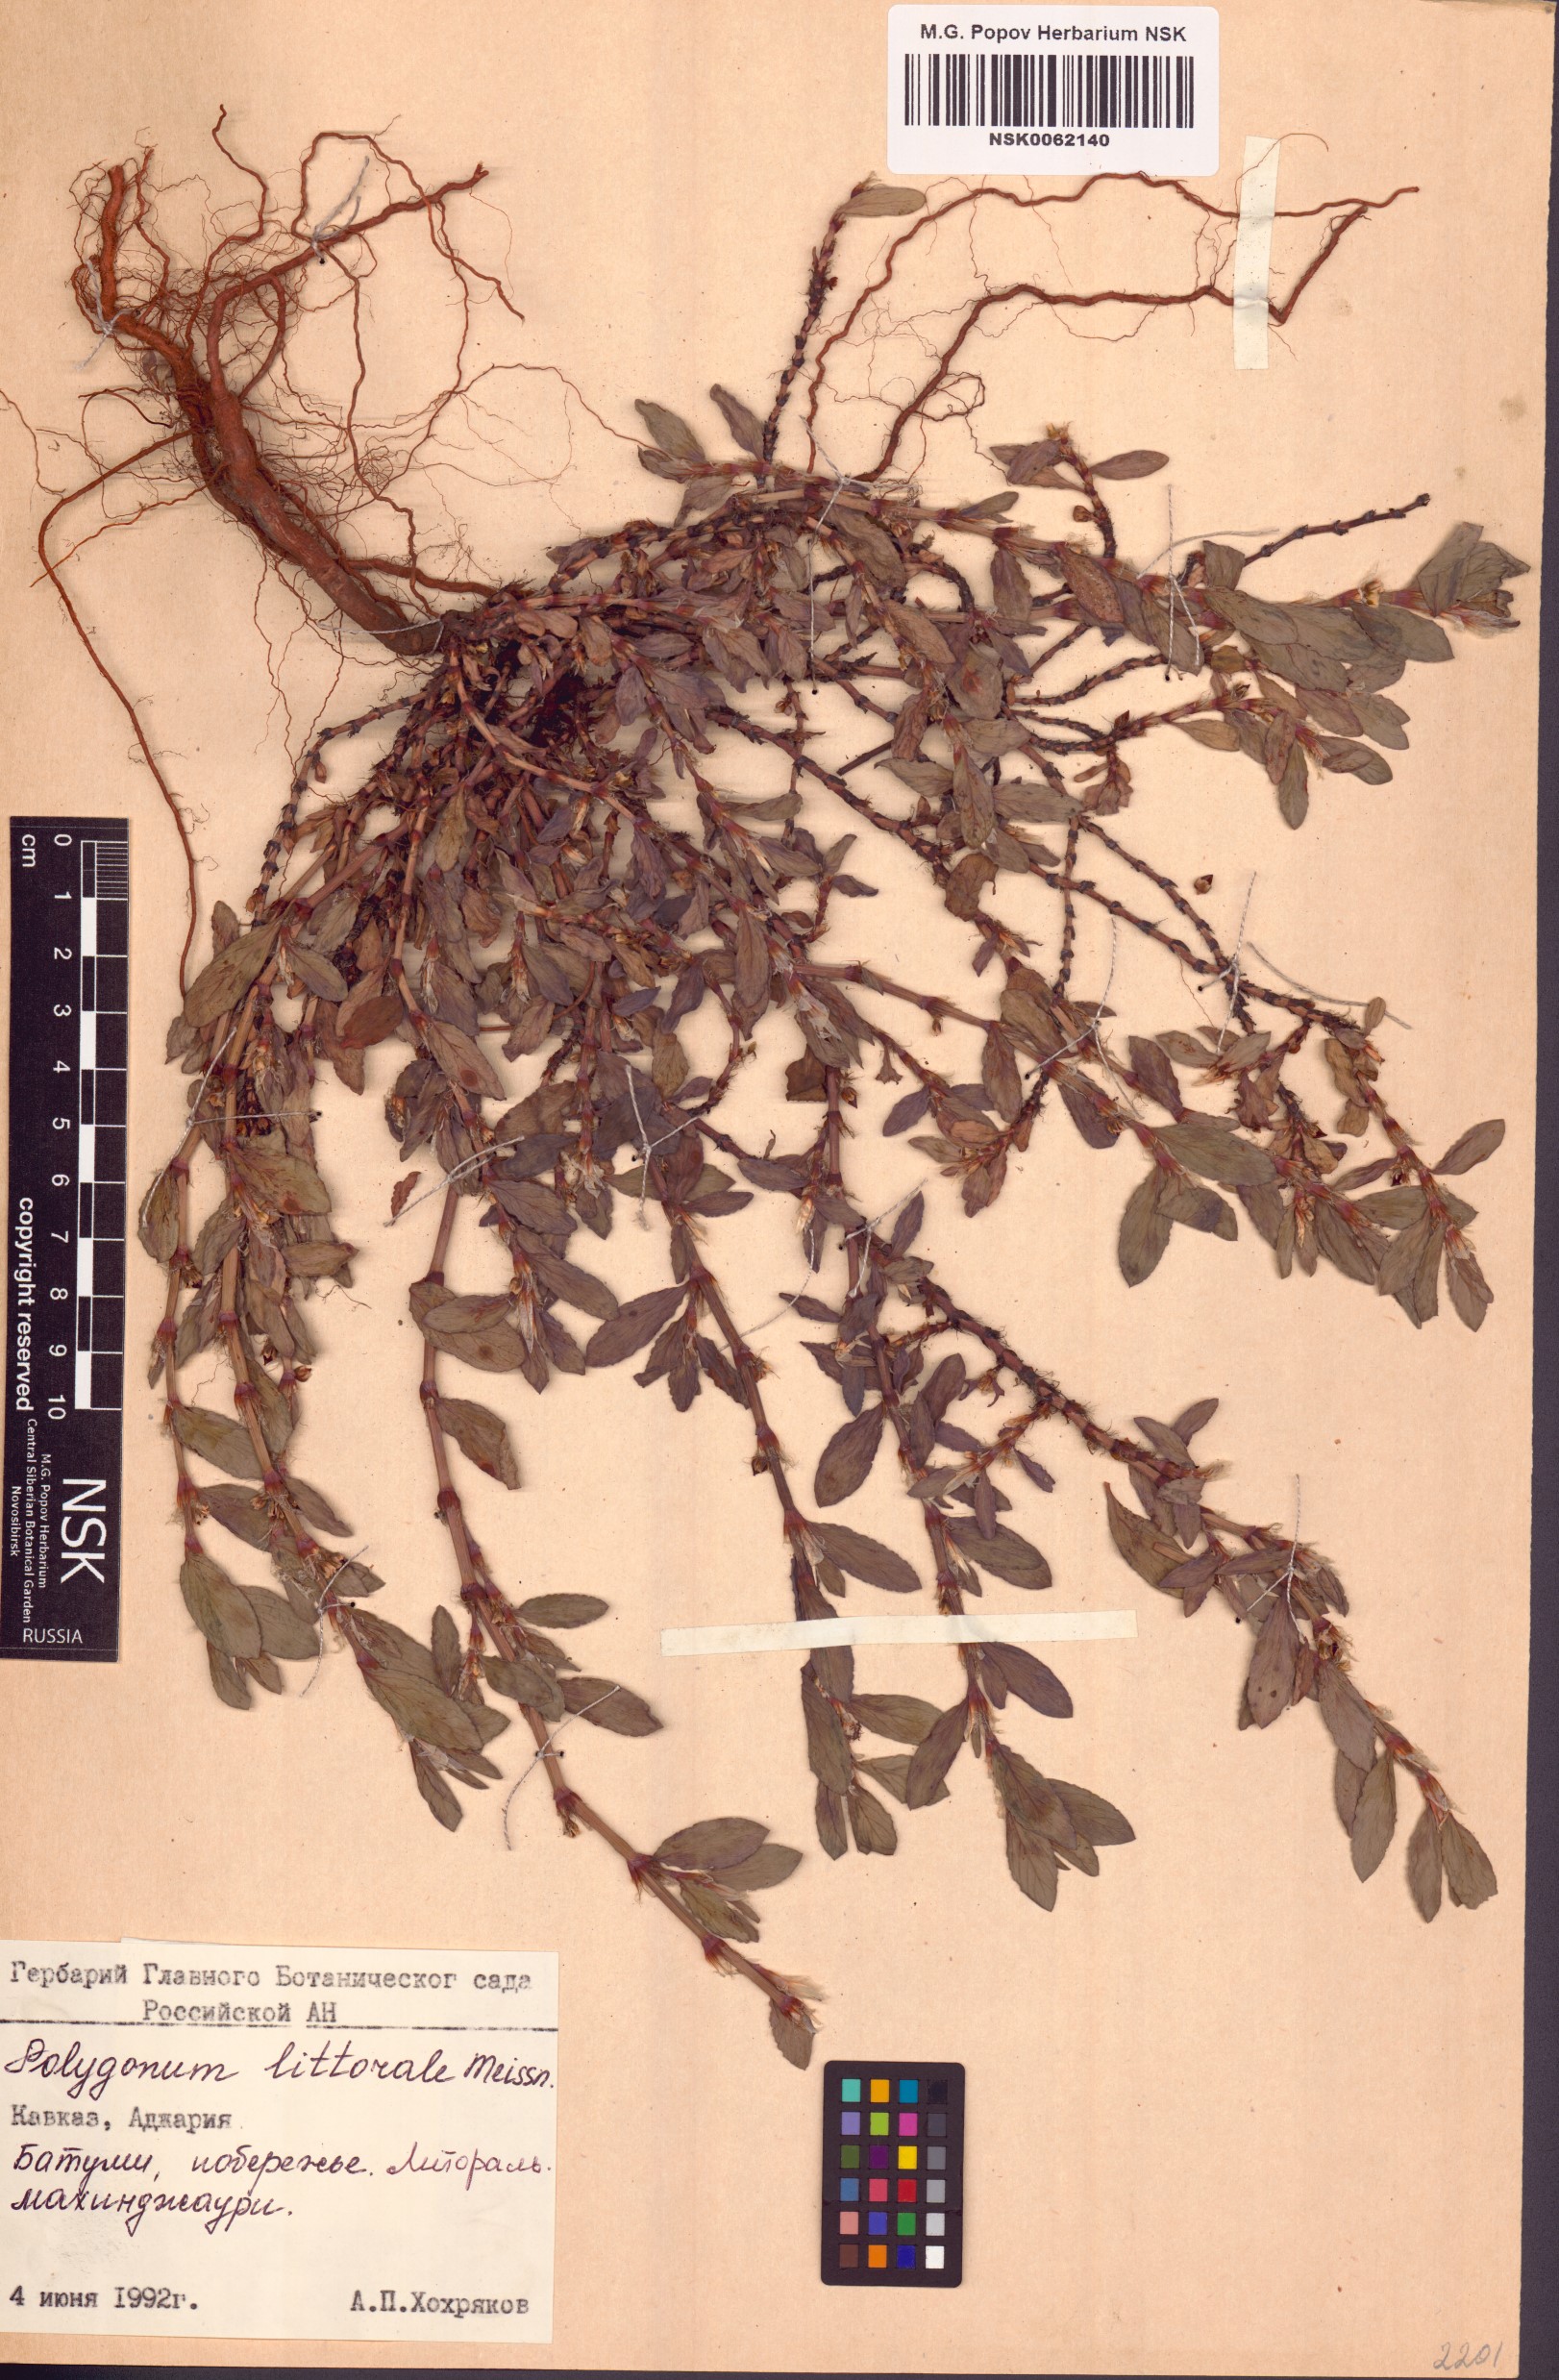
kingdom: Plantae
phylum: Tracheophyta
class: Magnoliopsida
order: Caryophyllales
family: Polygonaceae
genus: Polygonum
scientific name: Polygonum roberti
